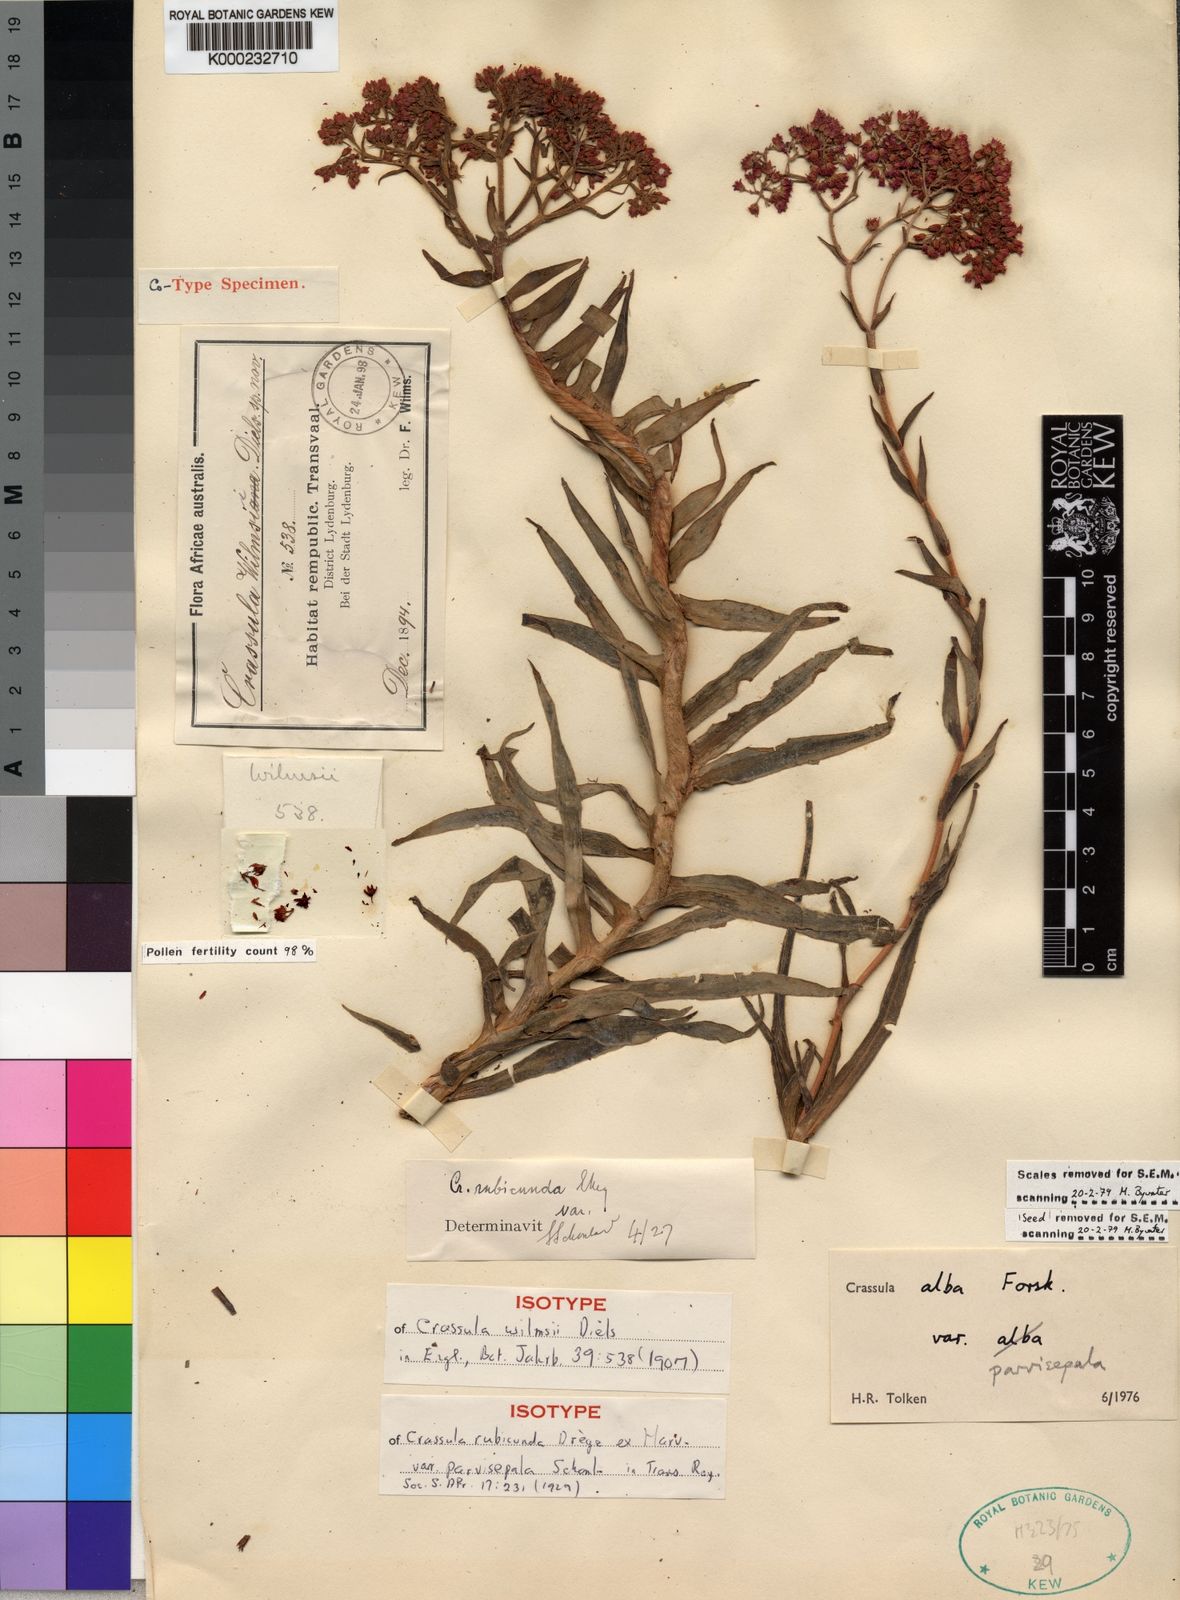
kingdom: Plantae
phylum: Tracheophyta
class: Magnoliopsida
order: Saxifragales
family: Crassulaceae
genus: Crassula
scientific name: Crassula alba
